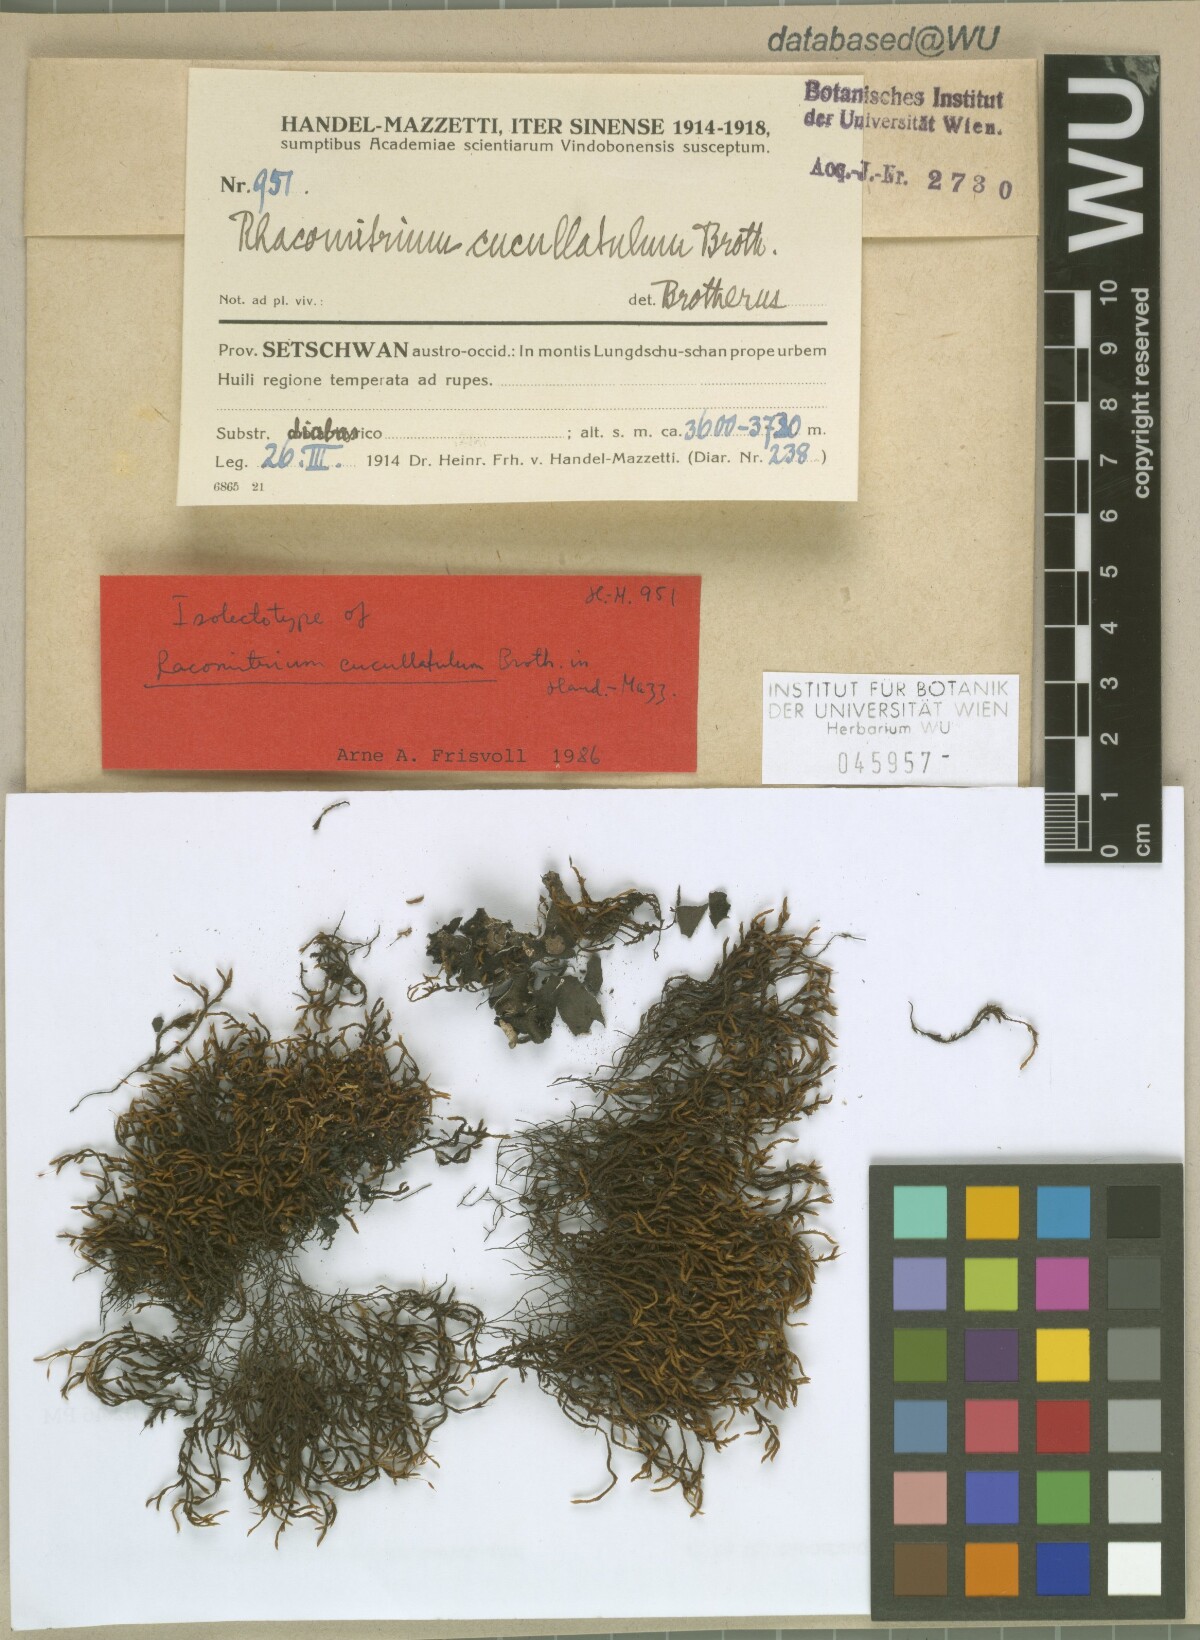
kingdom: Plantae
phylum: Bryophyta
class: Bryopsida
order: Grimmiales
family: Grimmiaceae
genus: Bucklandiella
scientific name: Bucklandiella cucullatula
